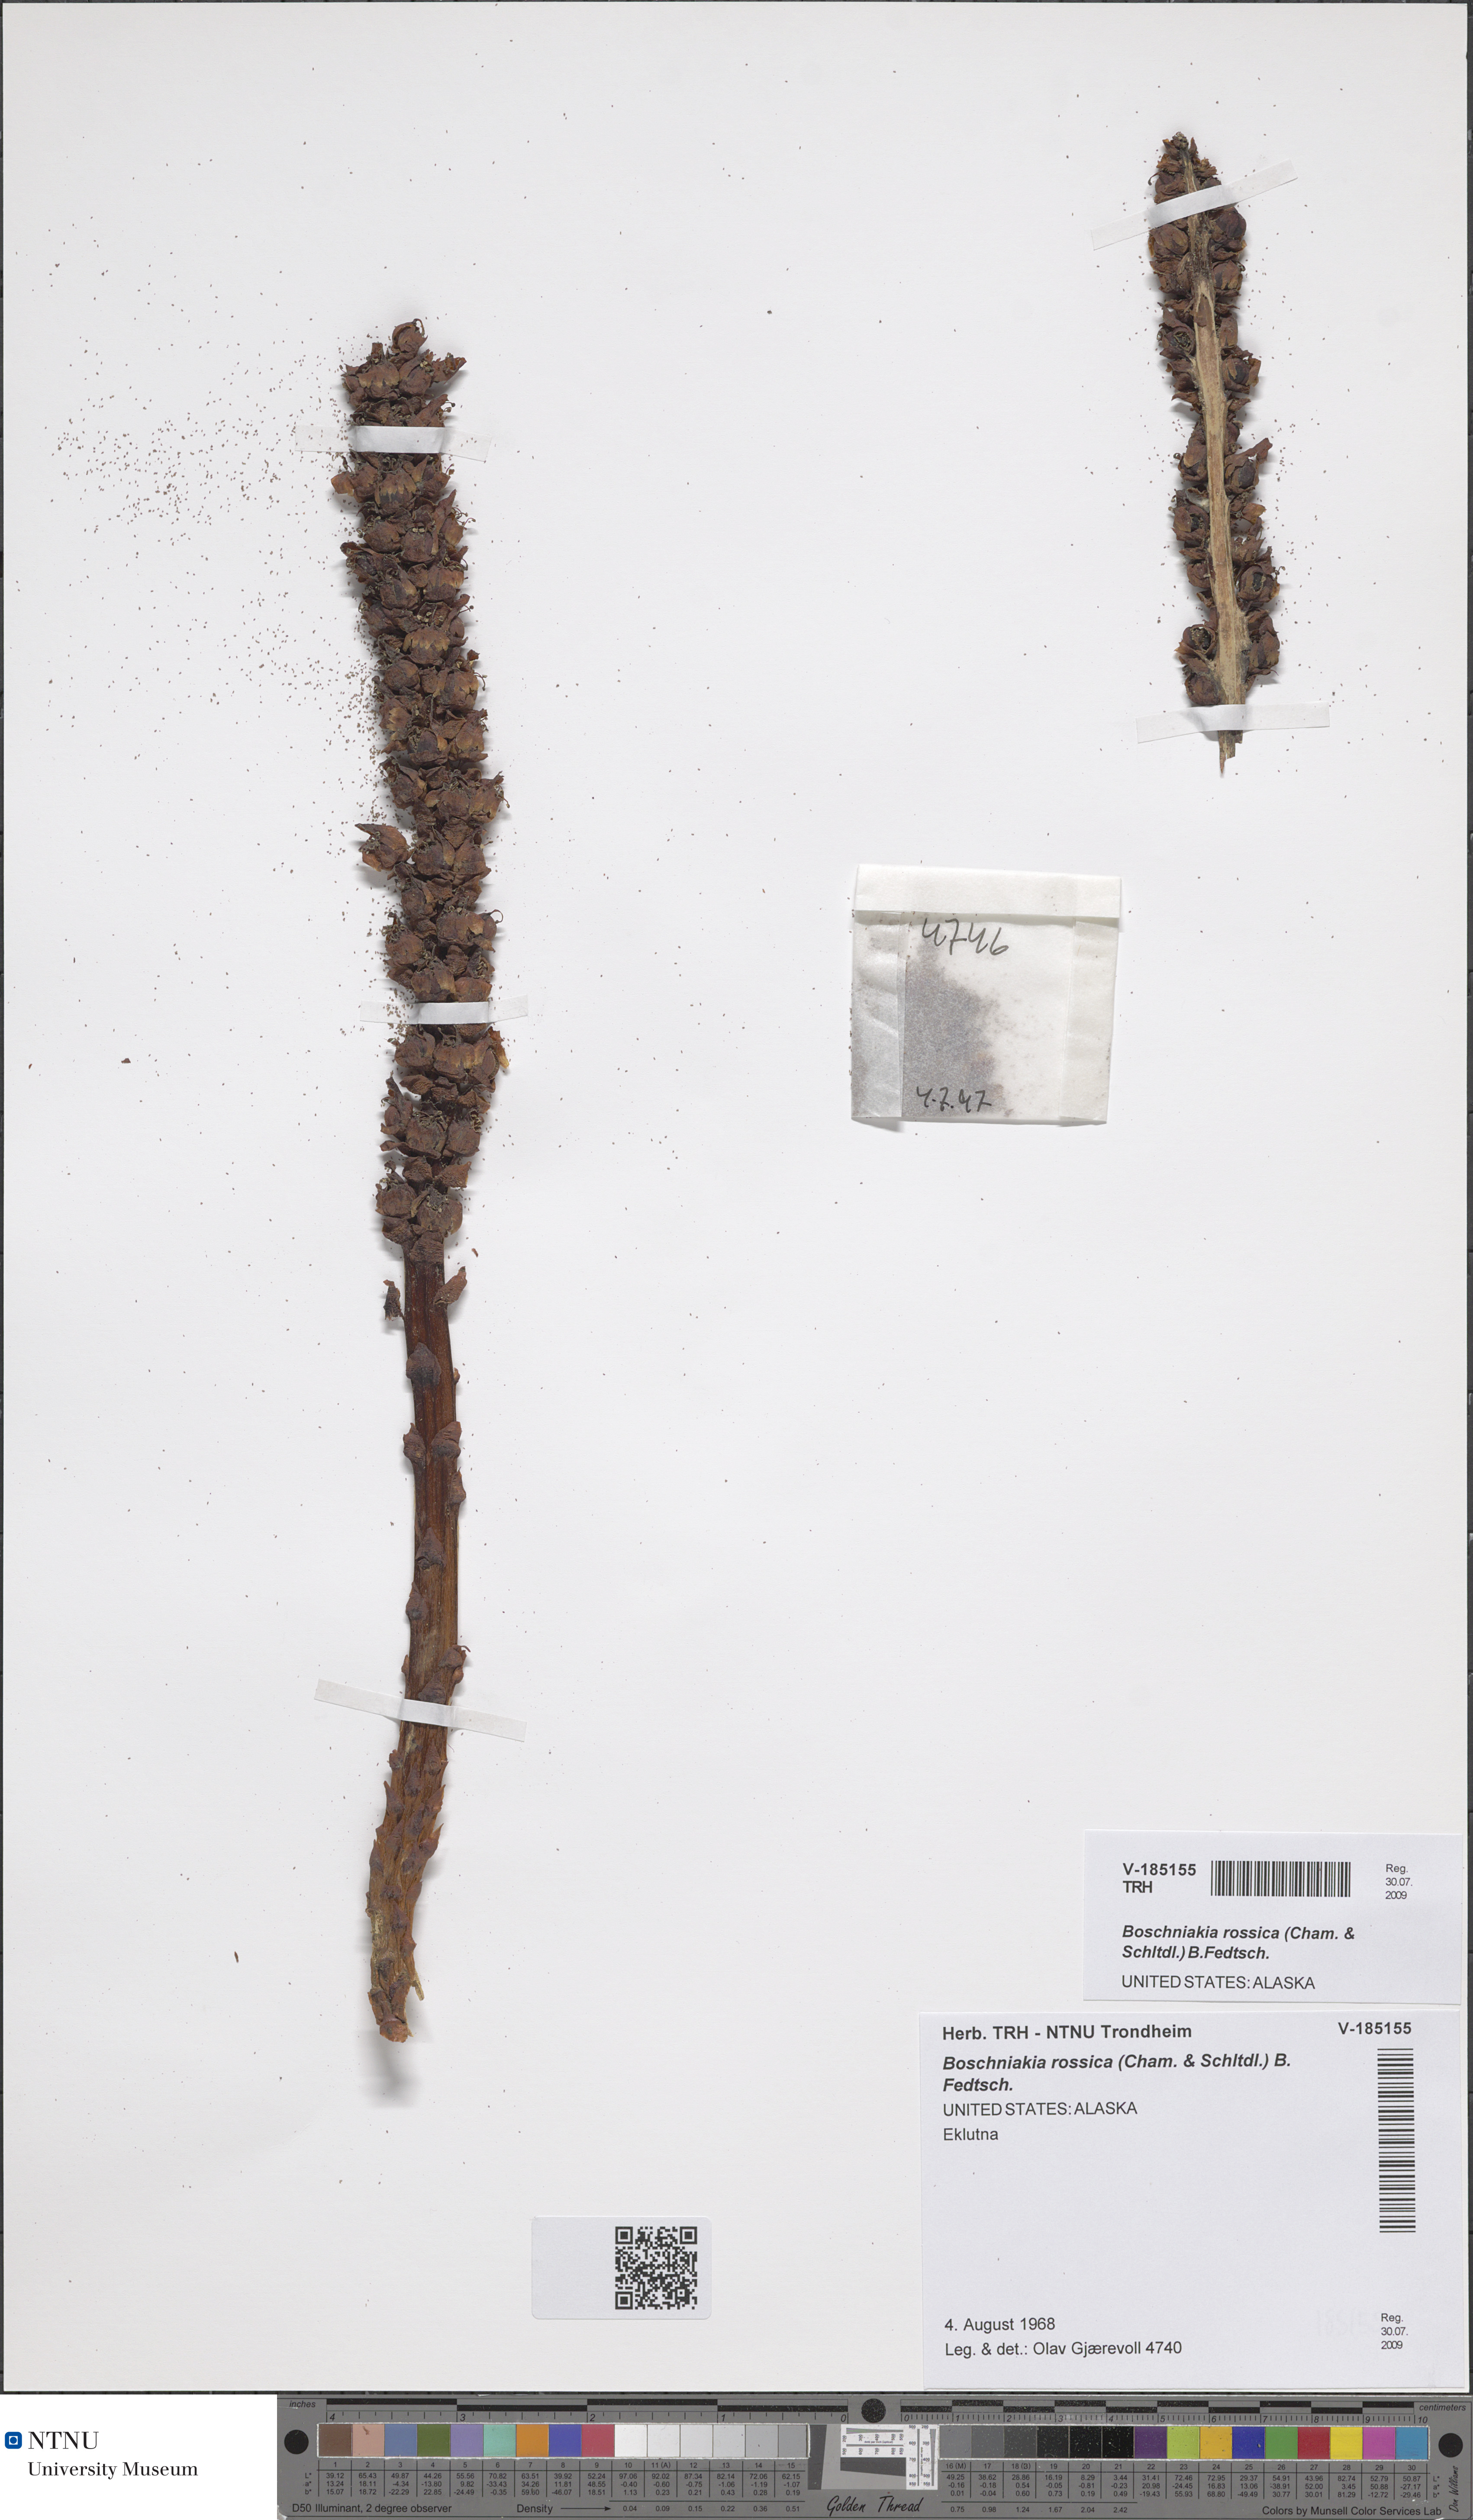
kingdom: Plantae
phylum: Tracheophyta
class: Magnoliopsida
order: Lamiales
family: Orobanchaceae
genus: Boschniakia
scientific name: Boschniakia rossica
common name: Poque
